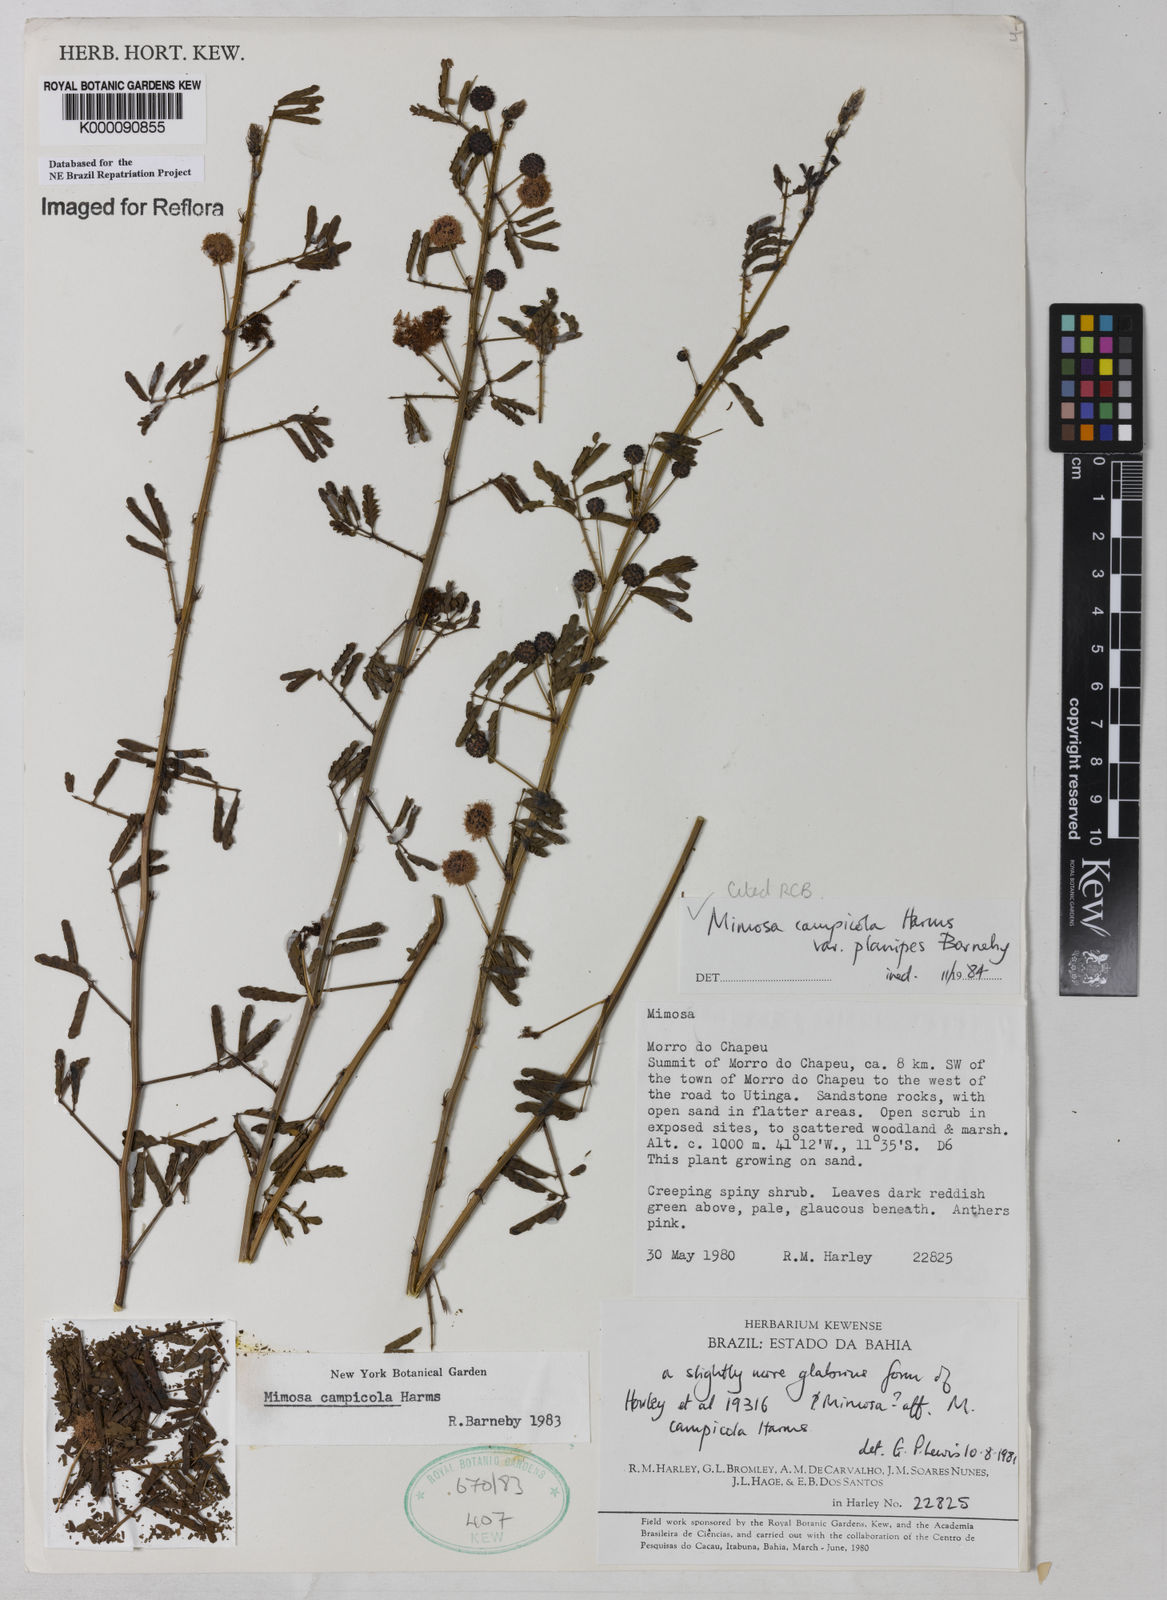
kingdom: Plantae
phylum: Tracheophyta
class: Magnoliopsida
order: Fabales
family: Fabaceae
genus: Mimosa
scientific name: Mimosa campicola
